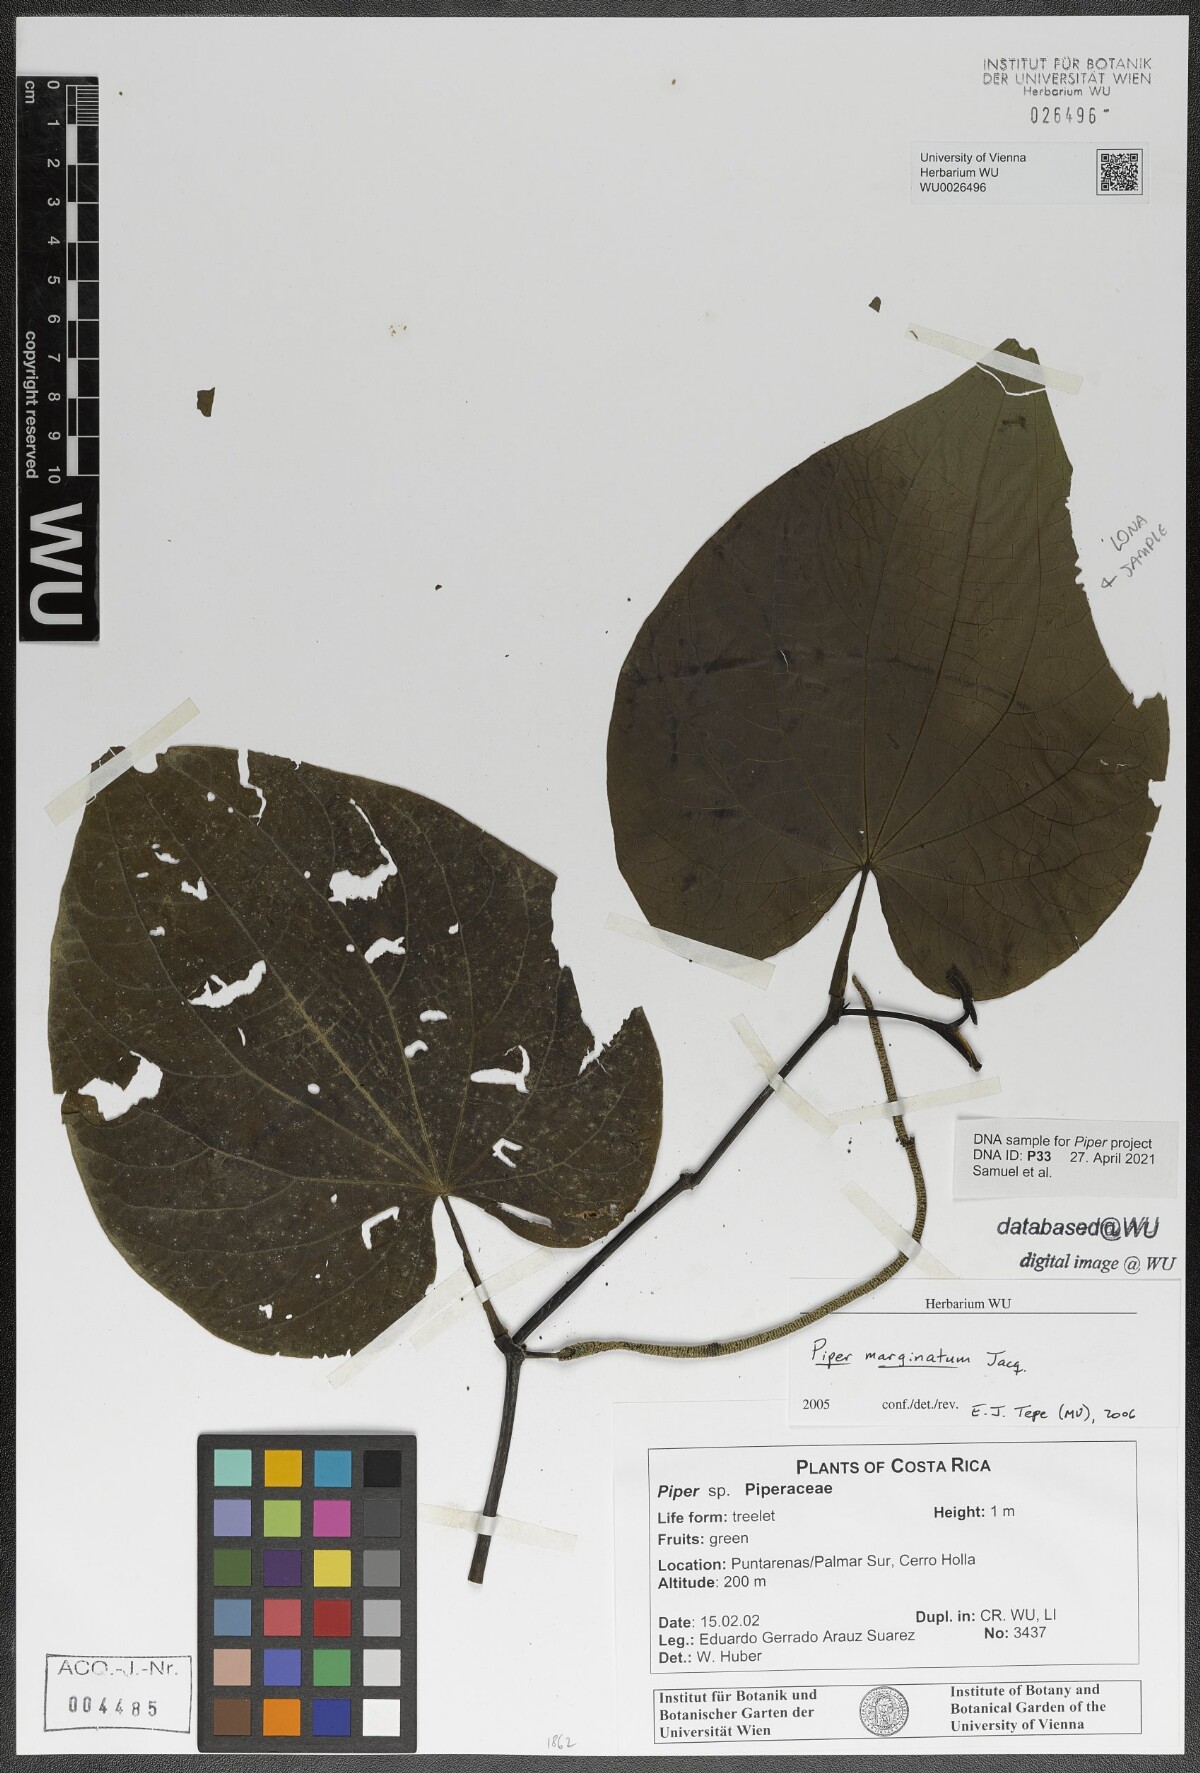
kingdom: Plantae
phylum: Tracheophyta
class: Magnoliopsida
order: Piperales
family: Piperaceae
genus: Piper
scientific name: Piper marginatum
